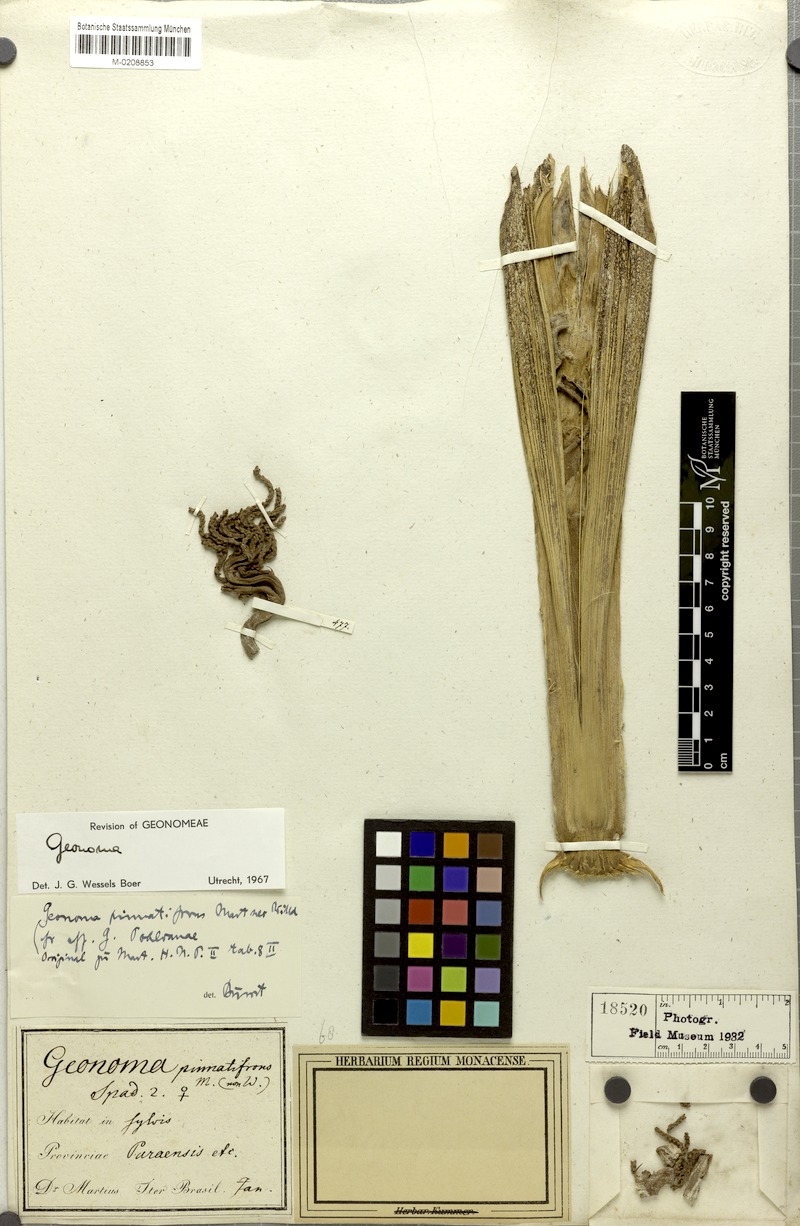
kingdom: Plantae
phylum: Tracheophyta
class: Liliopsida
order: Arecales
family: Arecaceae
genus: Geonoma
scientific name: Geonoma
